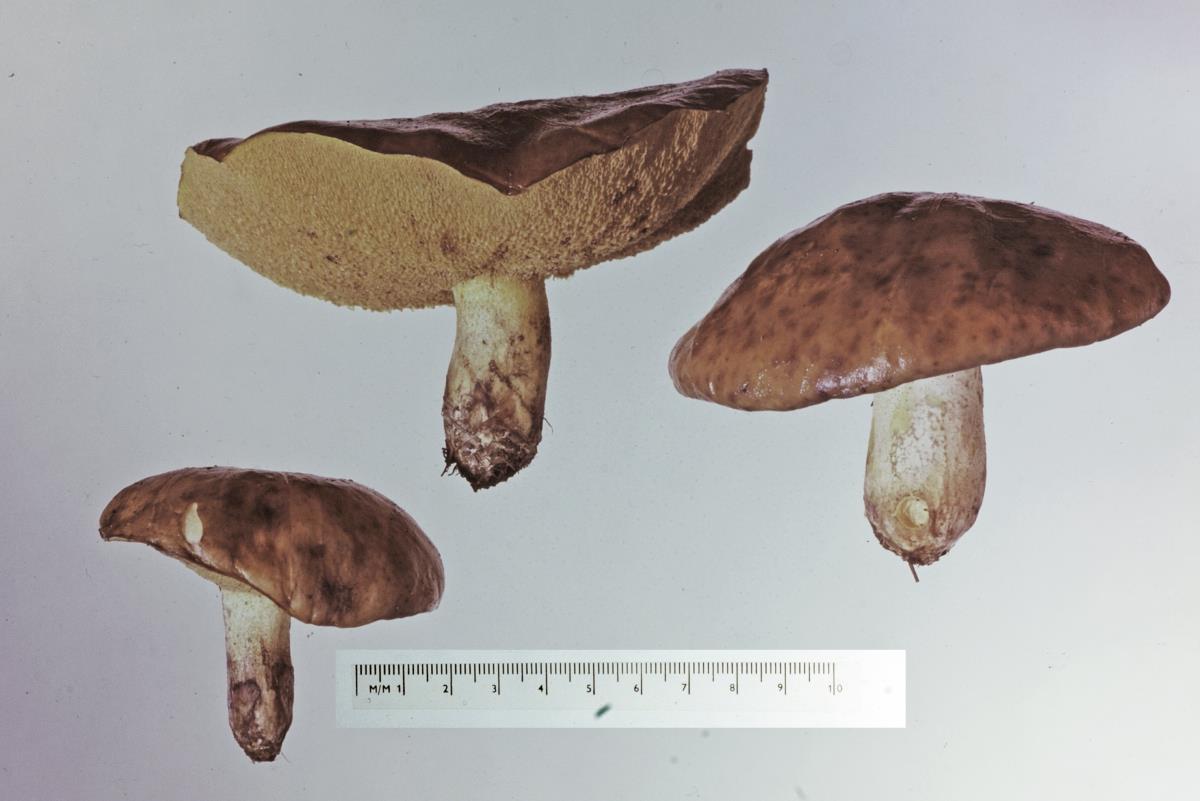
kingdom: Fungi
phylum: Basidiomycota
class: Agaricomycetes
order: Boletales
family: Suillaceae
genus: Suillus
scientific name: Suillus granulatus
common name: Weeping bolete
